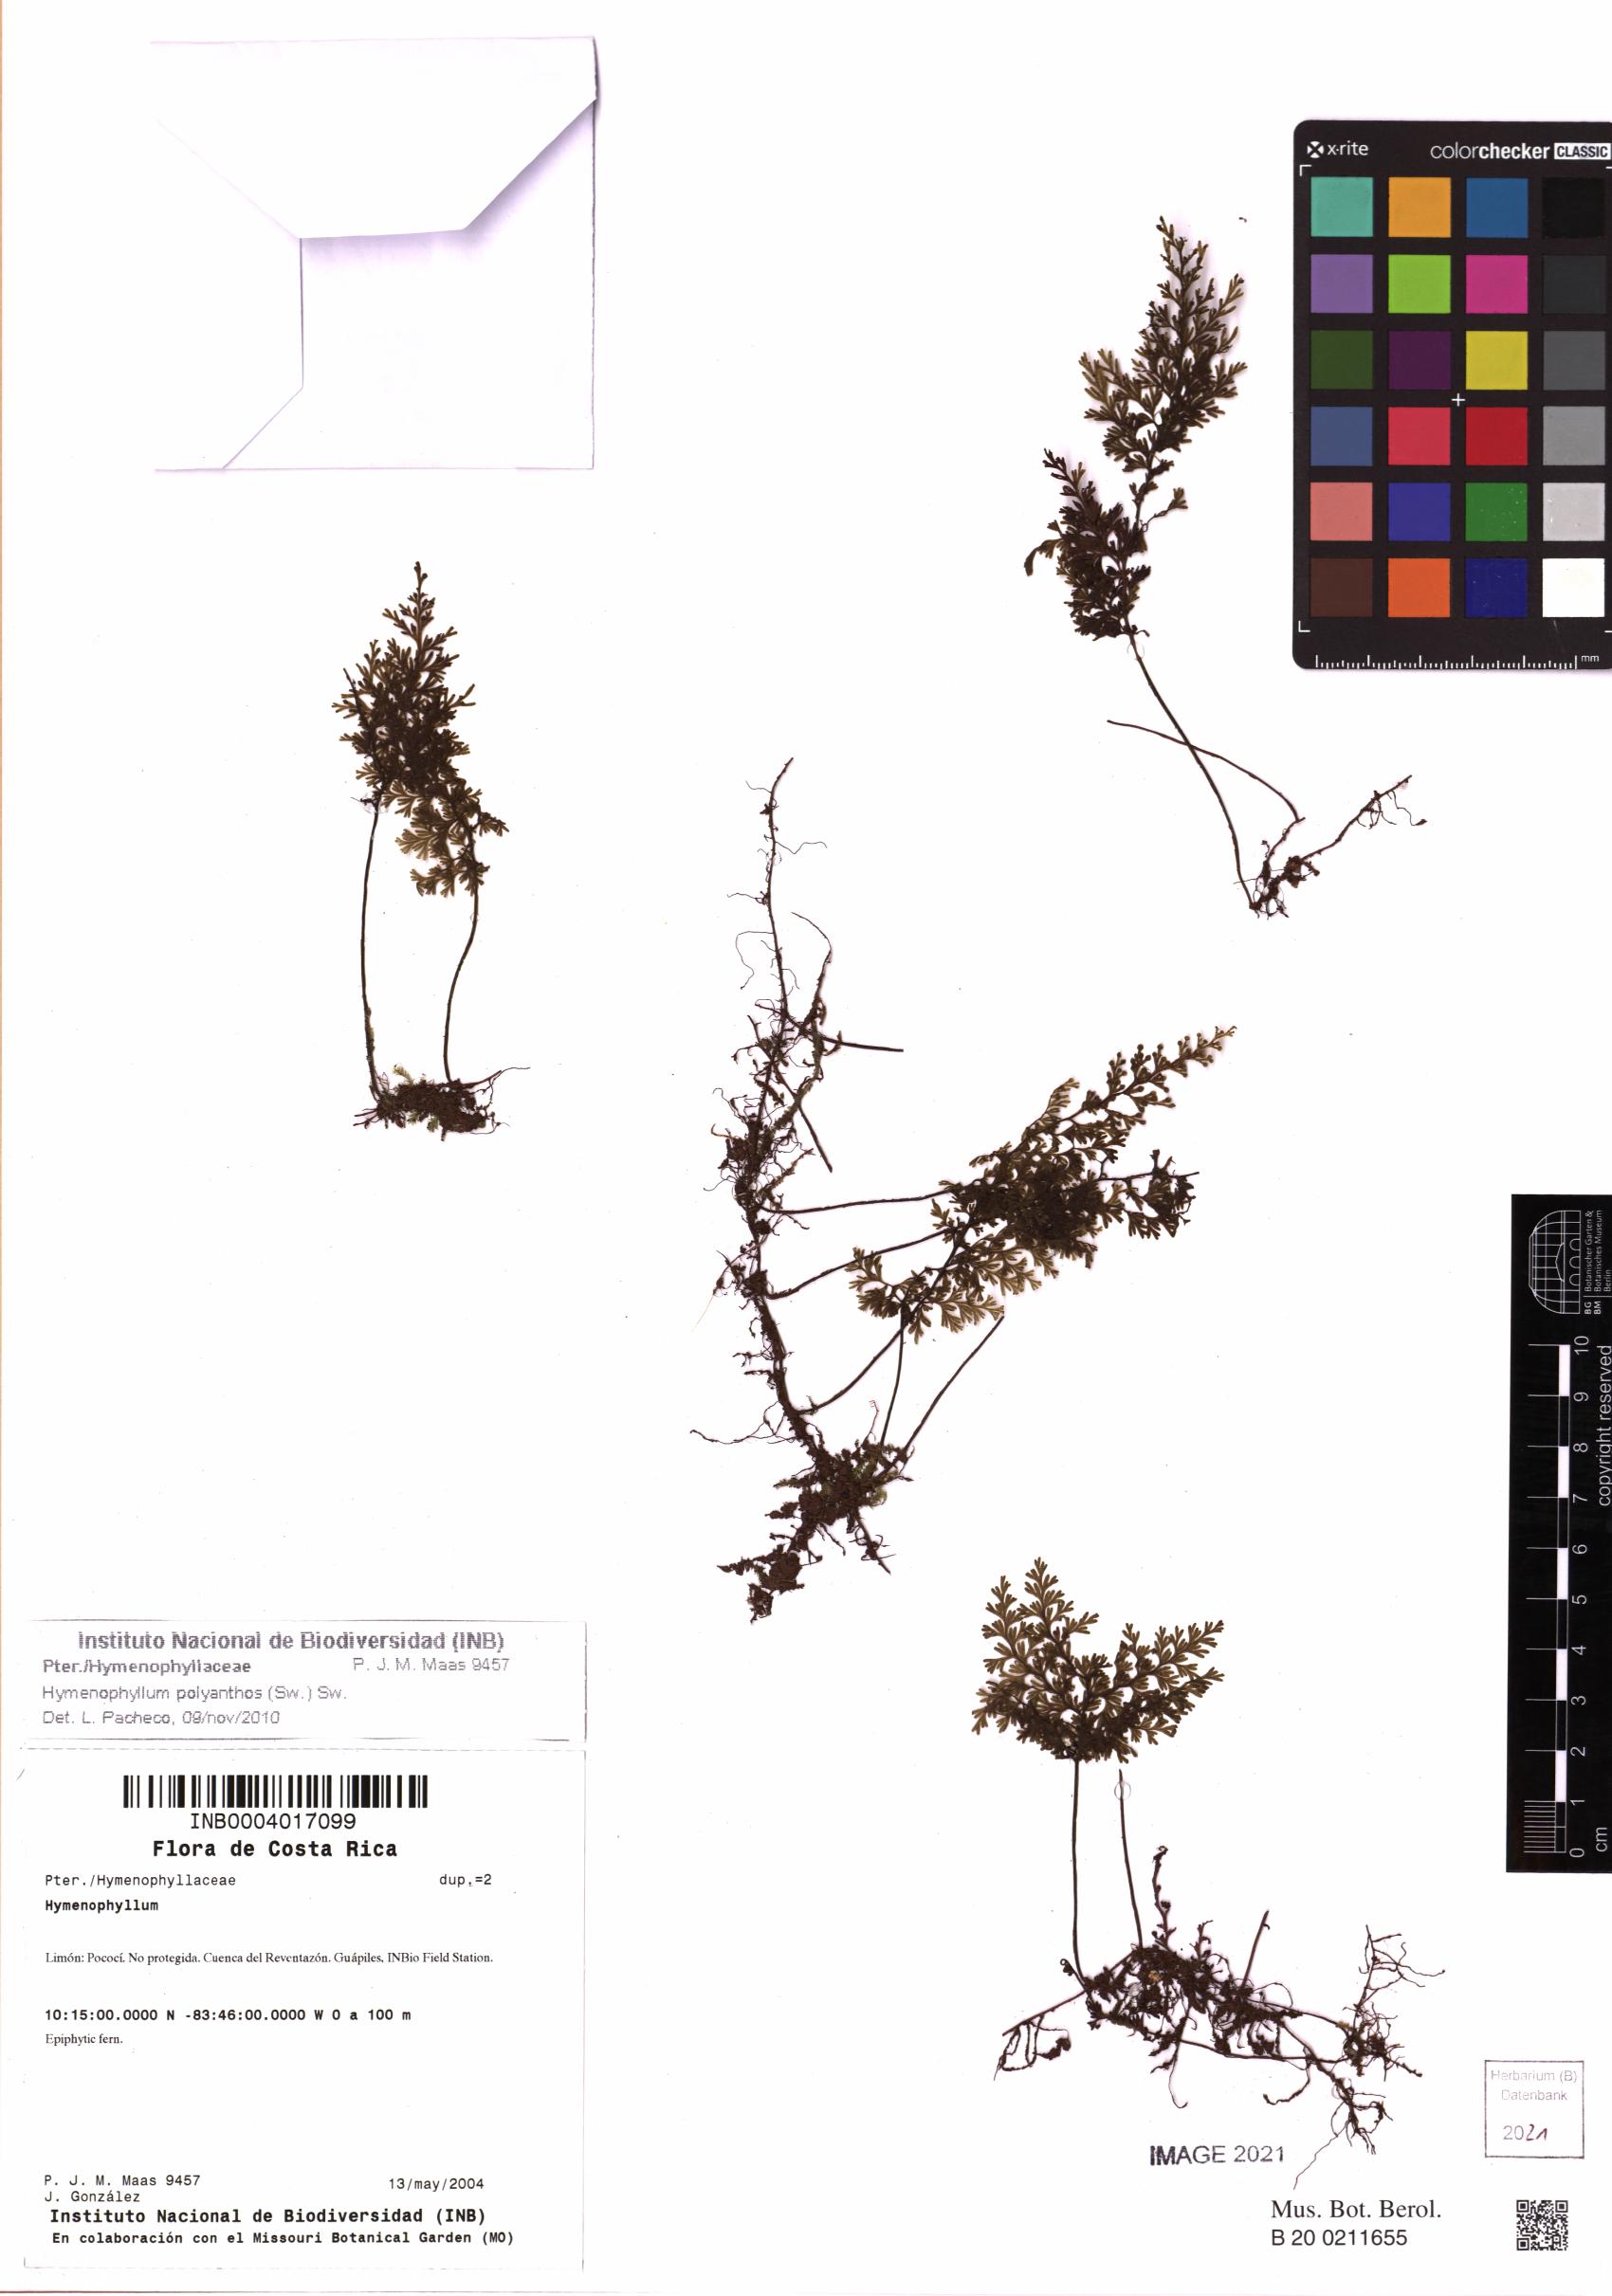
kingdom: Plantae
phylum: Tracheophyta
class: Polypodiopsida
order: Hymenophyllales
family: Hymenophyllaceae
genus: Hymenophyllum
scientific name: Hymenophyllum polyanthos
